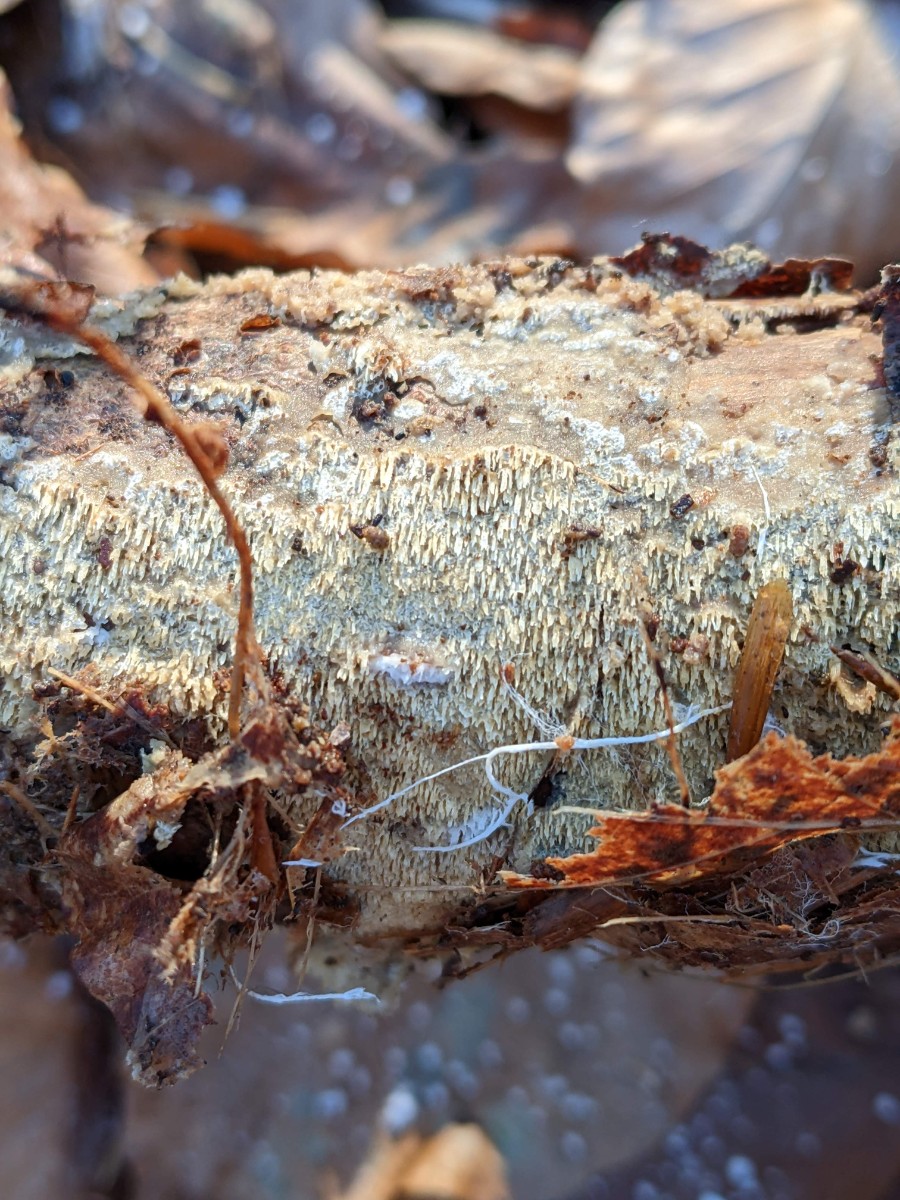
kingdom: Fungi
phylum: Basidiomycota
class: Agaricomycetes
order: Polyporales
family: Meruliaceae
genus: Mycoacia
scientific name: Mycoacia uda
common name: citrongul vokspig
